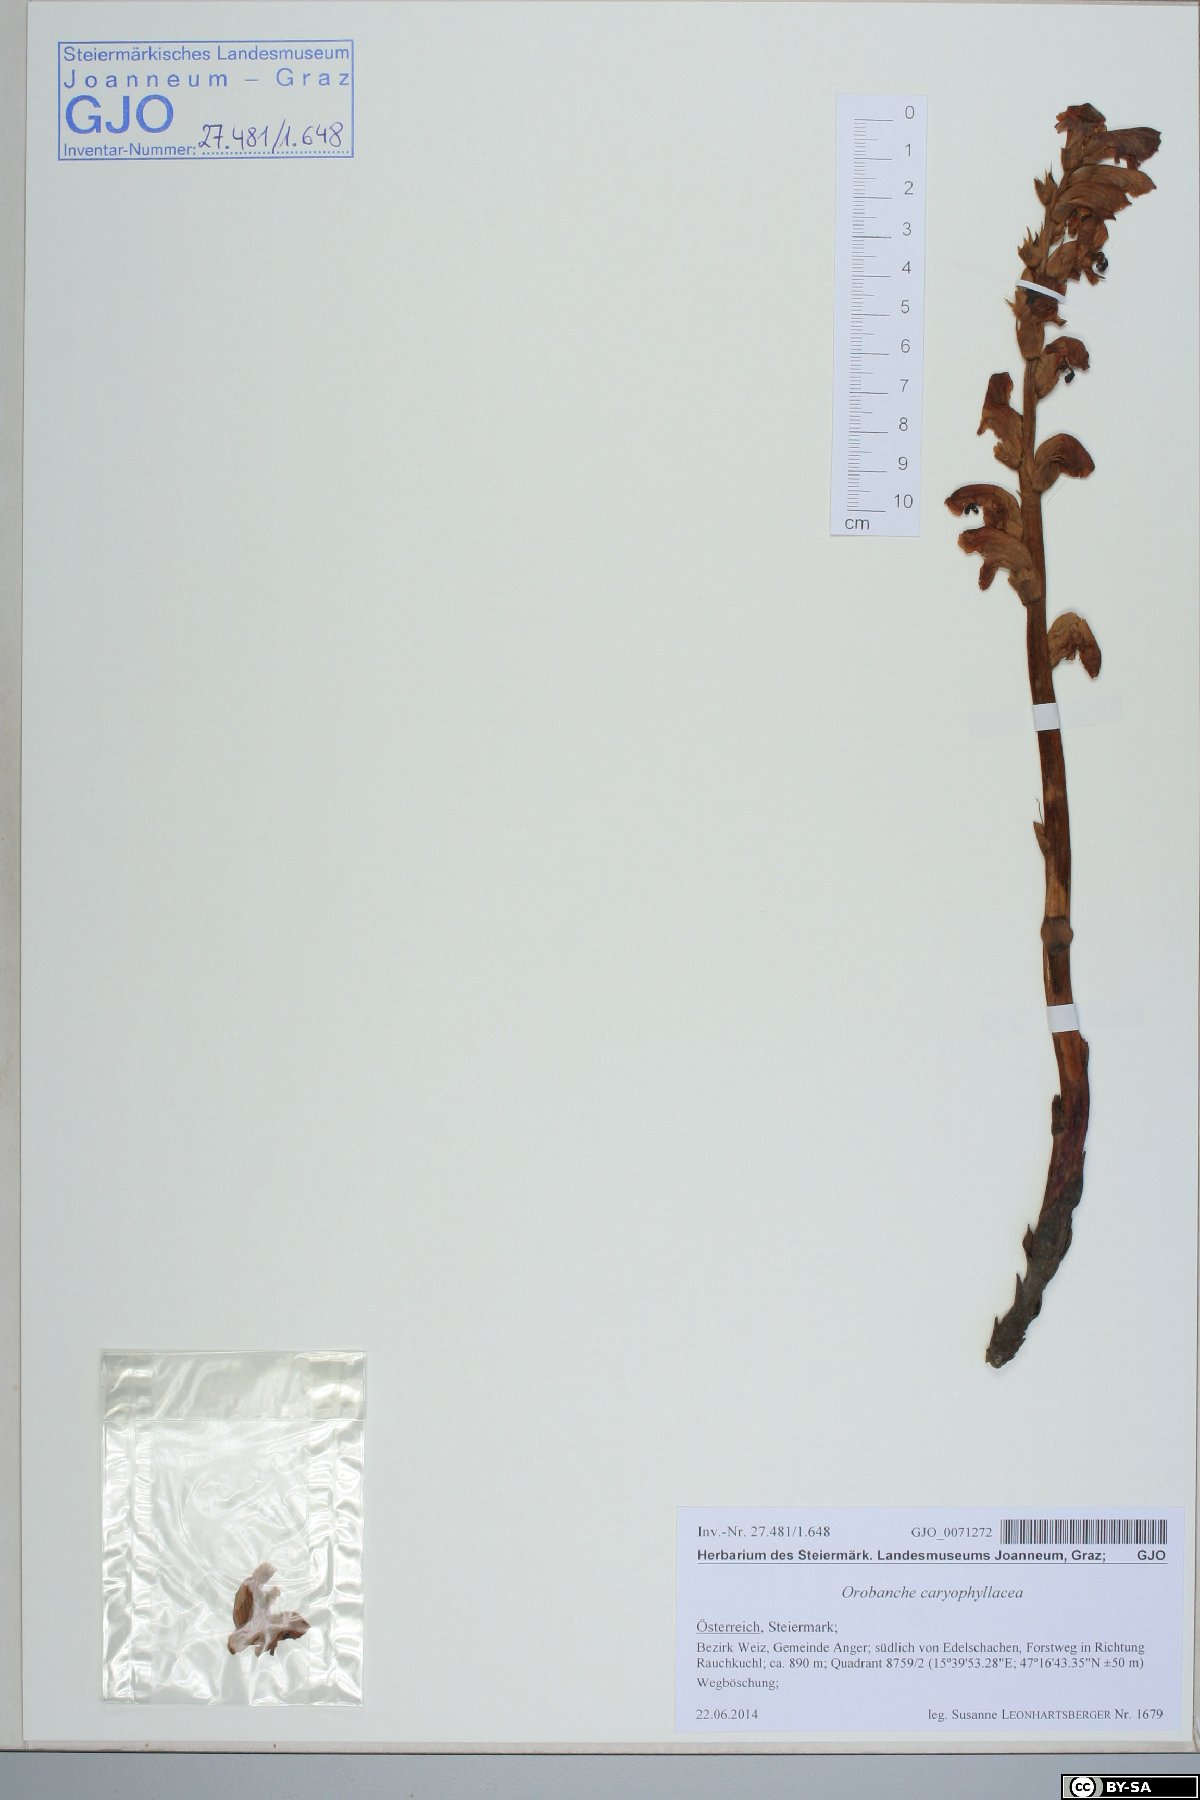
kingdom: Plantae
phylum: Tracheophyta
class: Magnoliopsida
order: Lamiales
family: Orobanchaceae
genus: Orobanche
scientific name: Orobanche caryophyllacea
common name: Bedstraw broomrape
